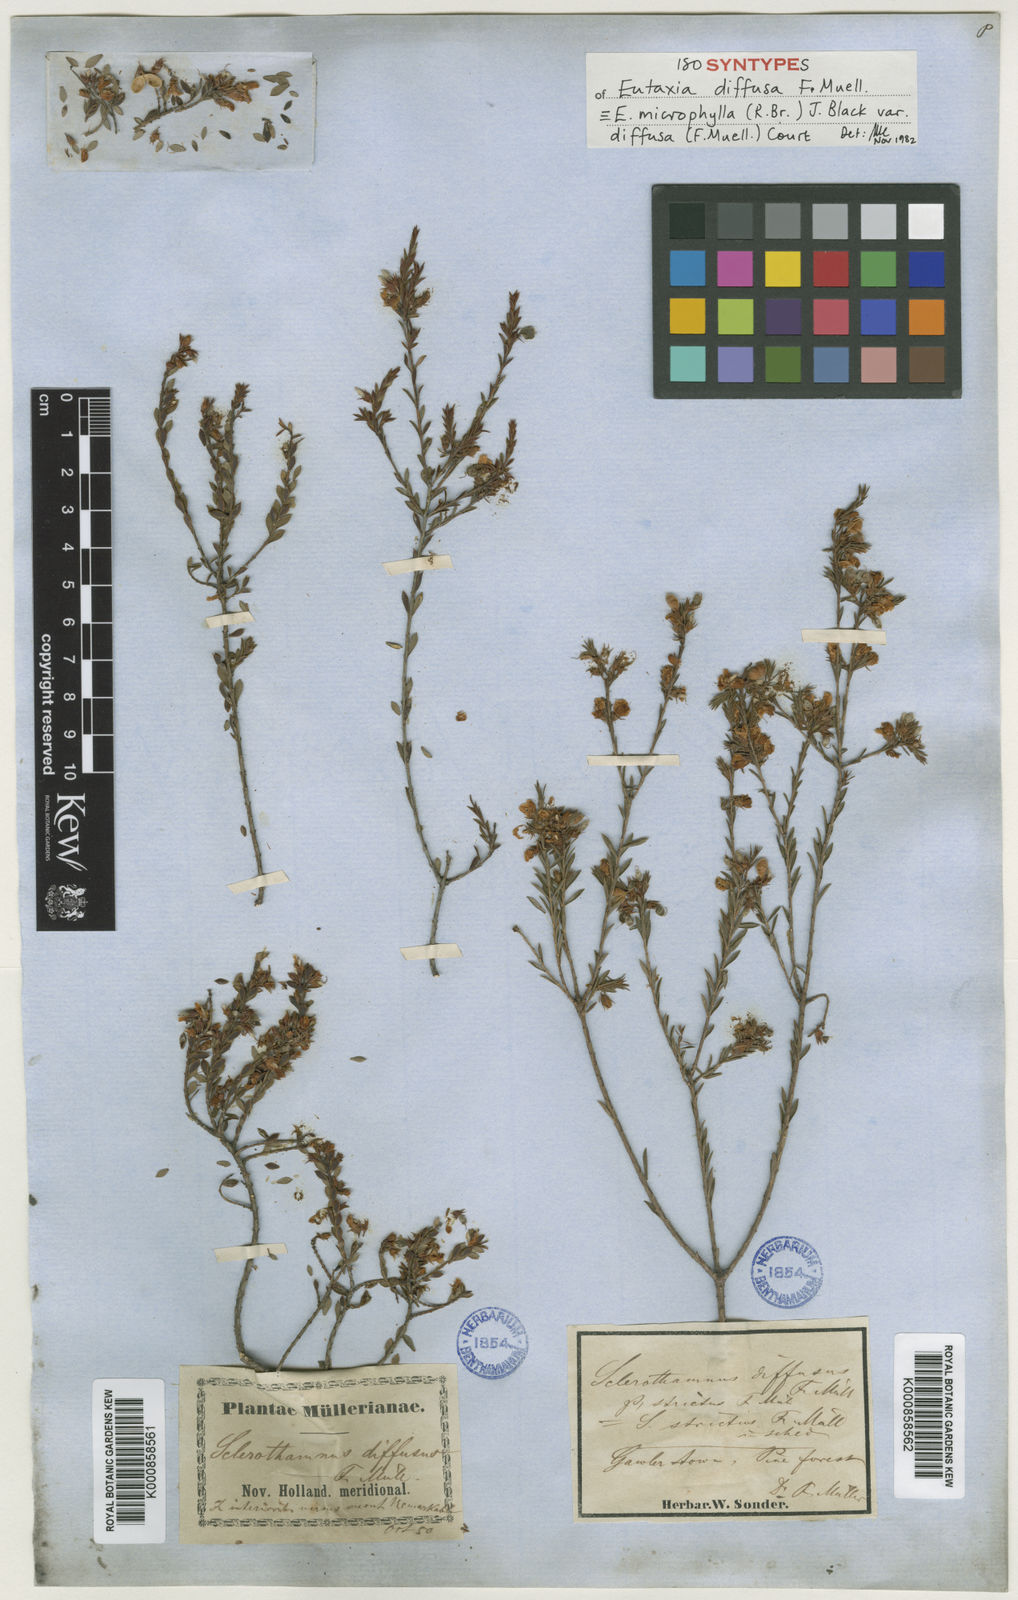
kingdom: Plantae
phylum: Tracheophyta
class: Magnoliopsida
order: Fabales
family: Fabaceae
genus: Eutaxia
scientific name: Eutaxia diffusa
